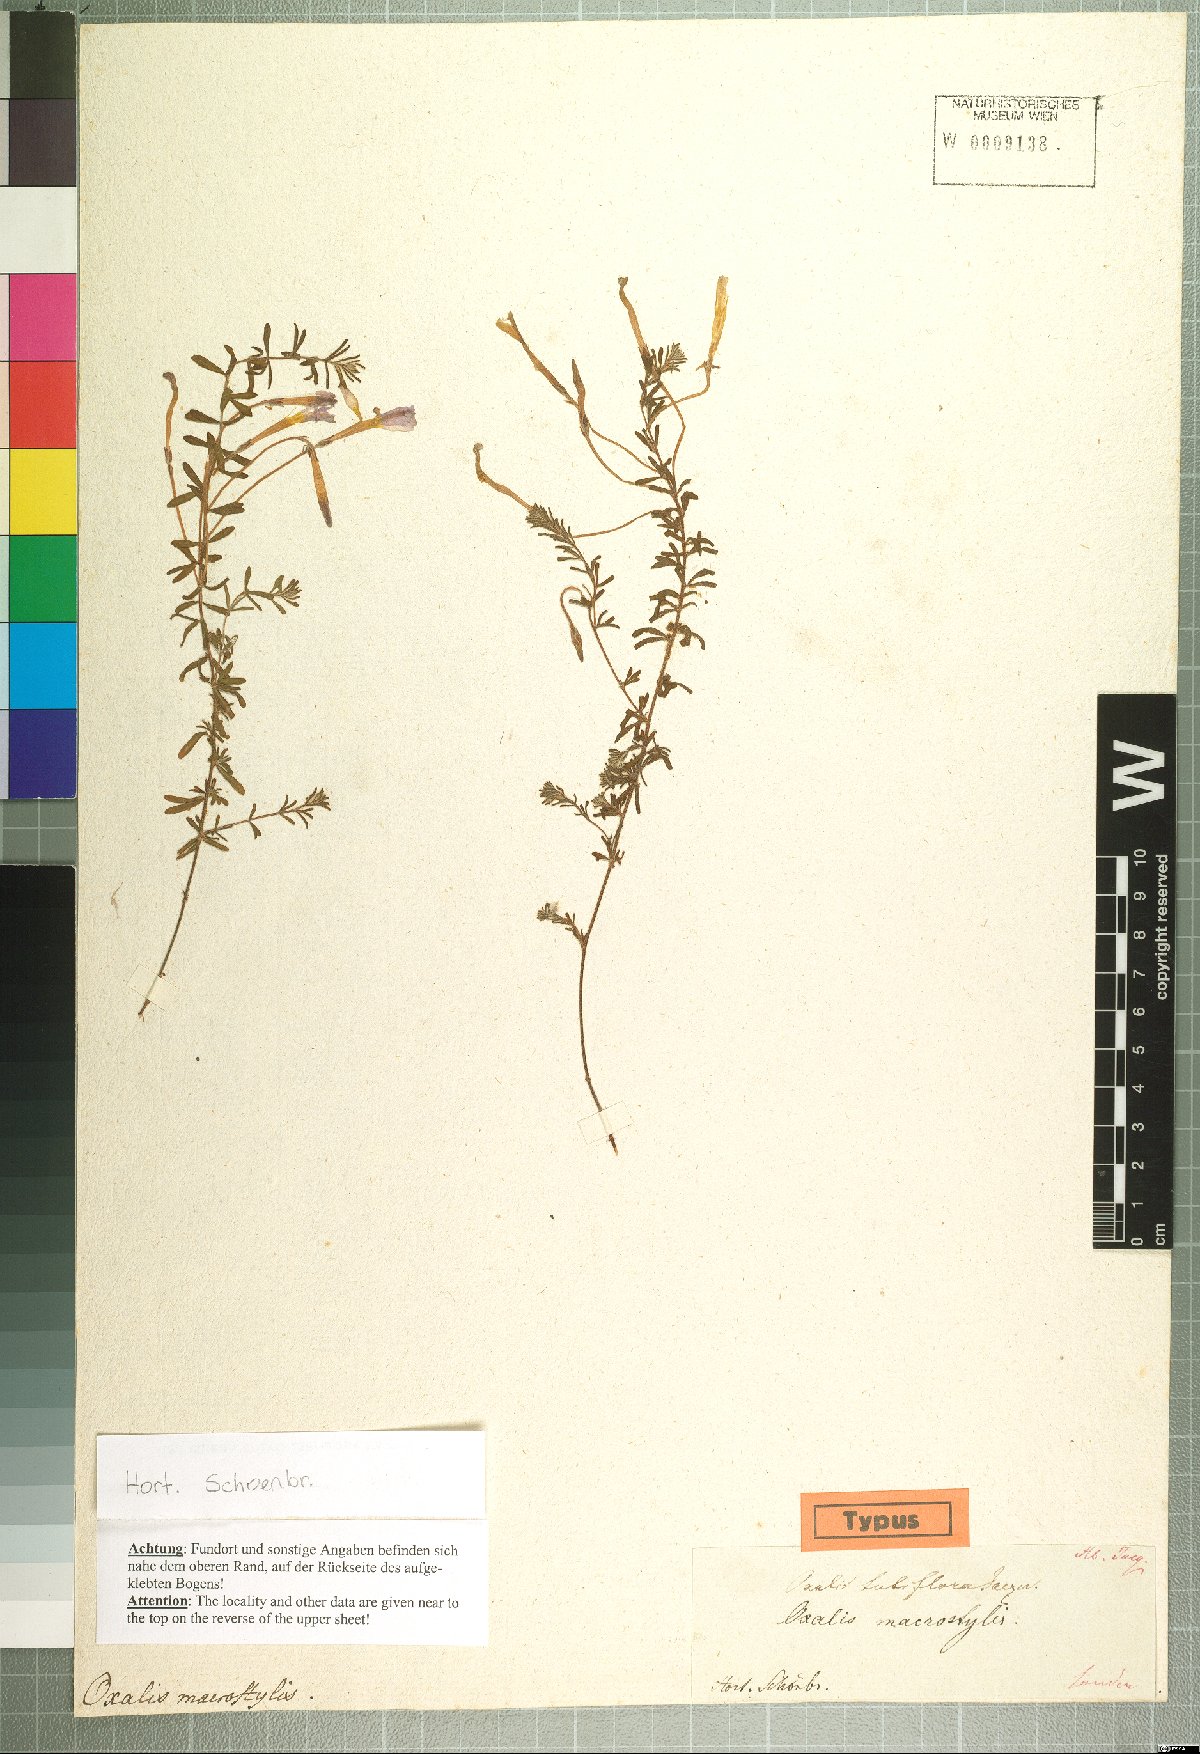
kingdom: Plantae
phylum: Tracheophyta
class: Magnoliopsida
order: Oxalidales
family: Oxalidaceae
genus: Oxalis
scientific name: Oxalis hirta
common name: Tropical woodsorrel
